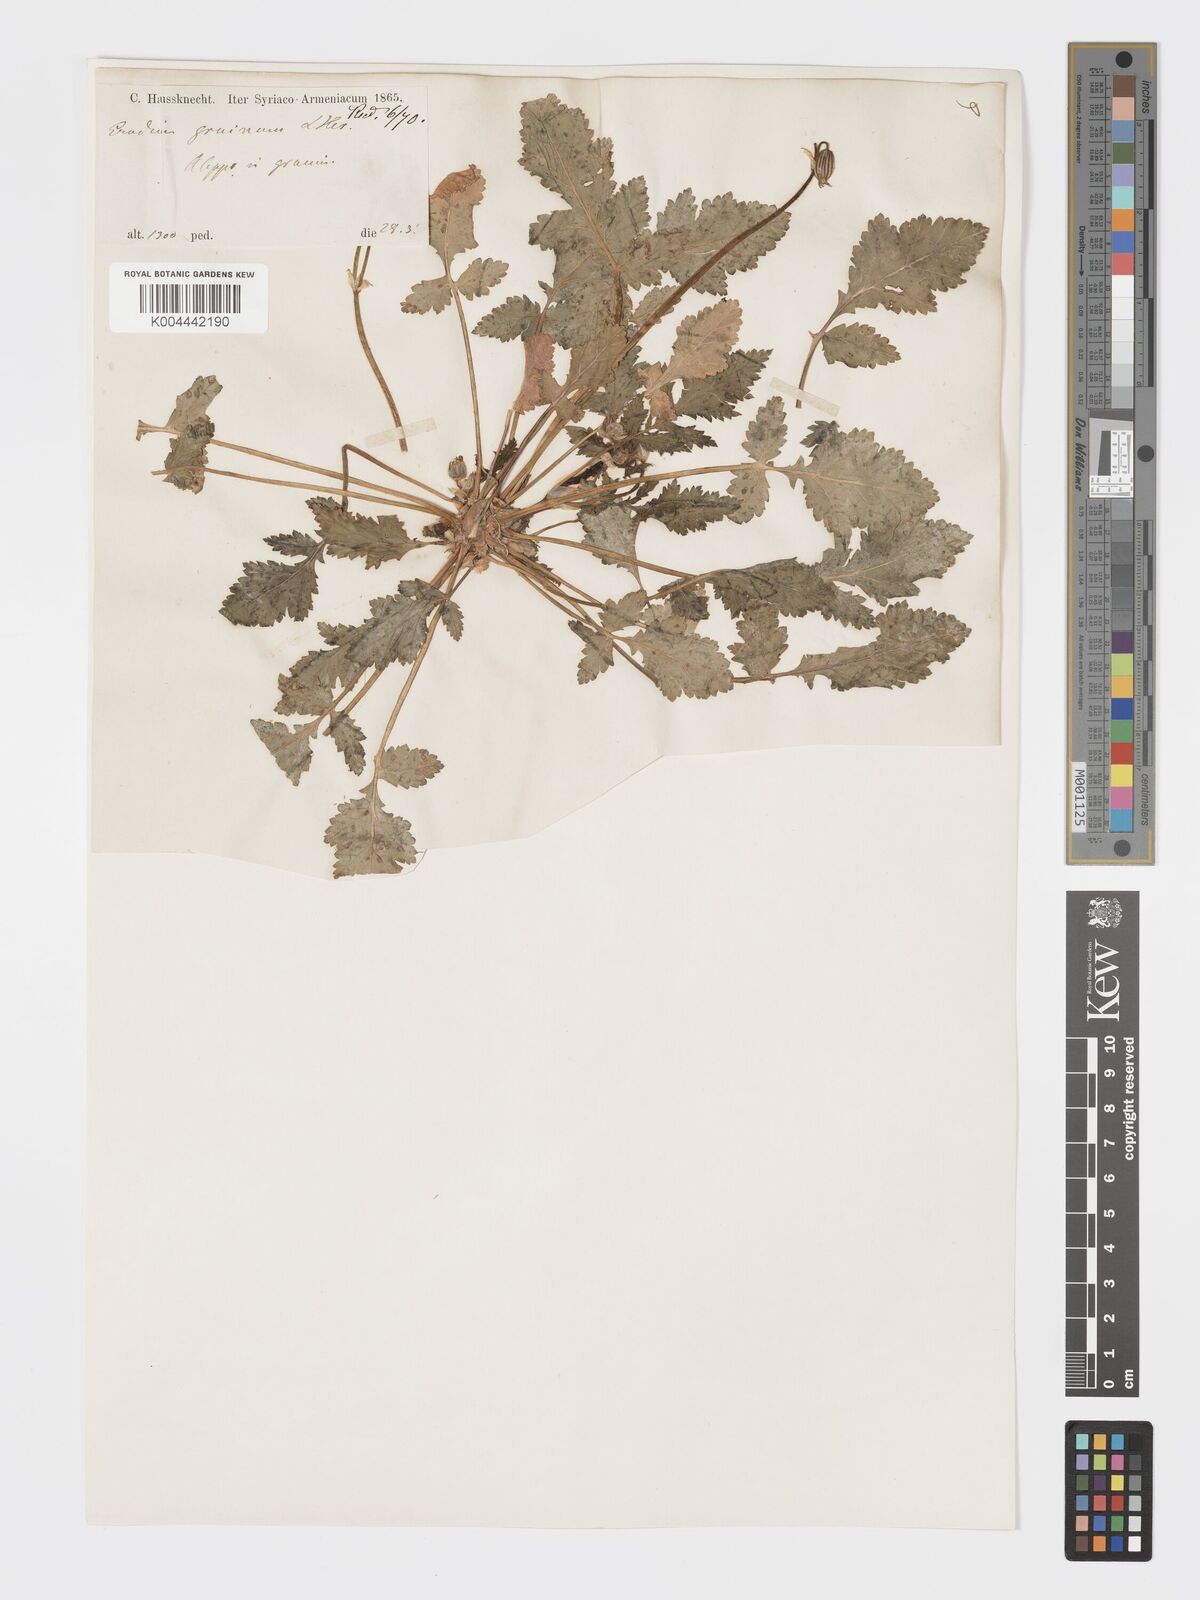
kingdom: Plantae
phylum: Tracheophyta
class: Magnoliopsida
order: Geraniales
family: Geraniaceae
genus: Erodium
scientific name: Erodium gruinum
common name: Iranian stork's bill
